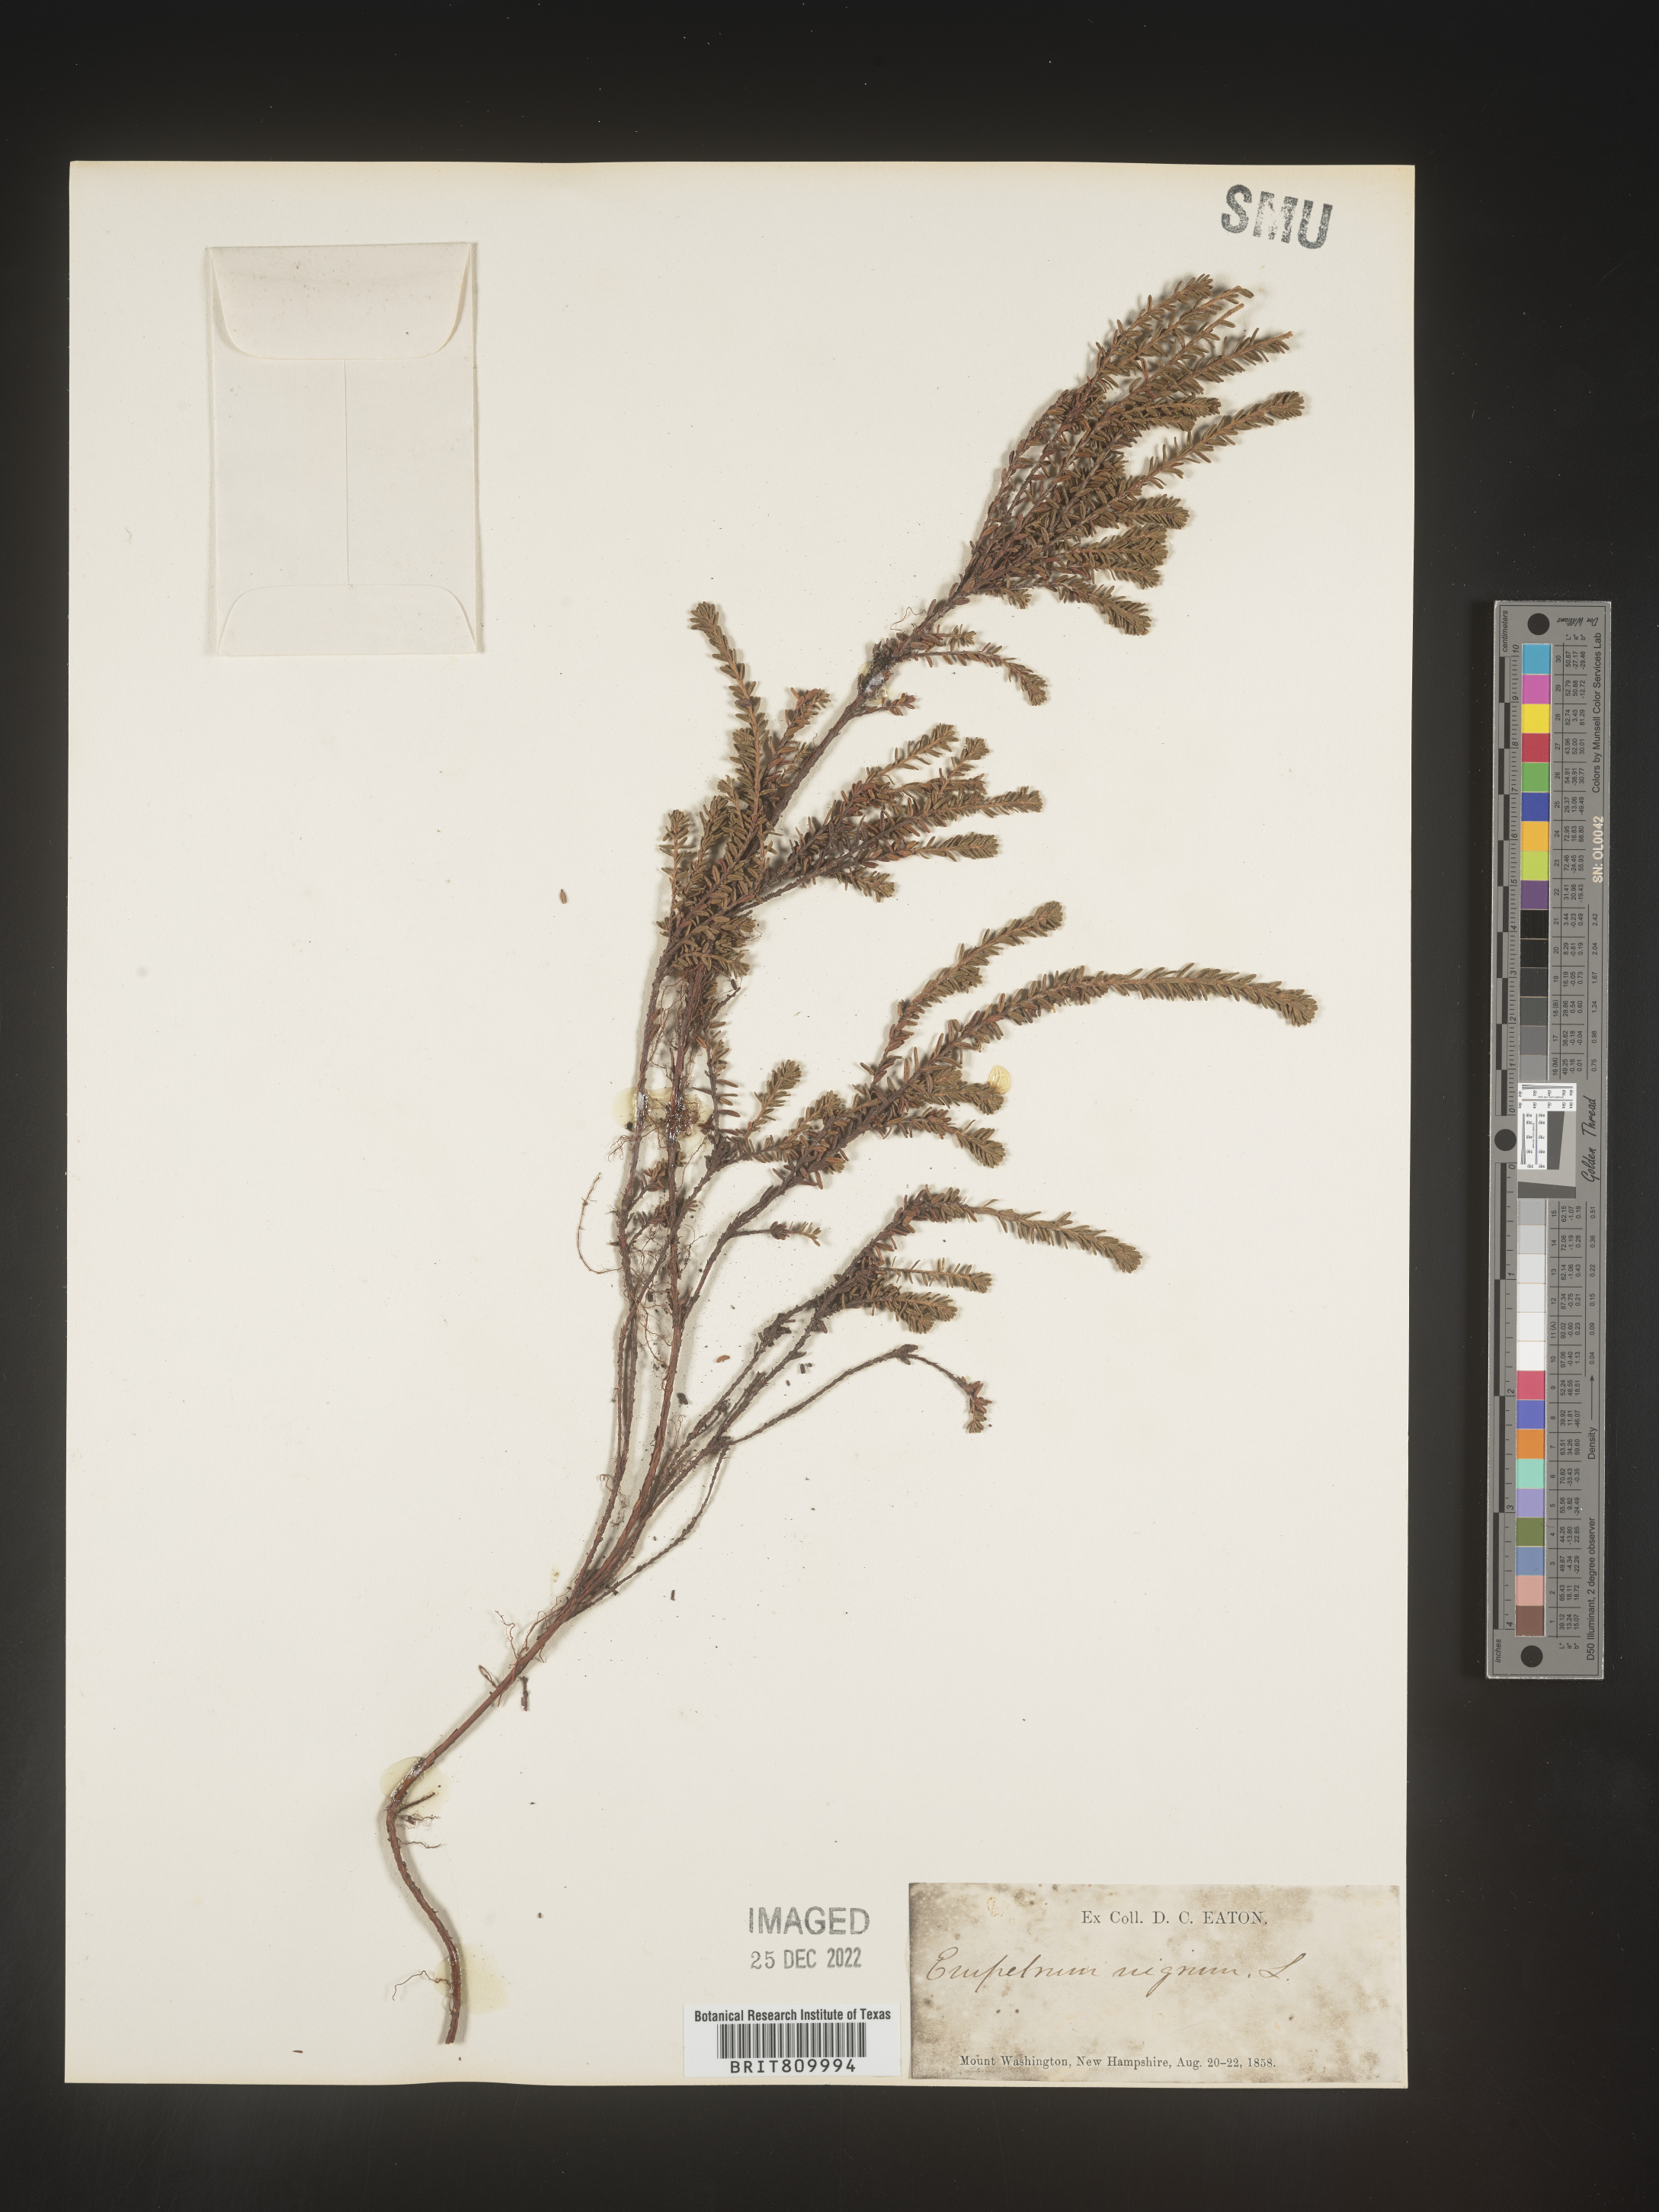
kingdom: Plantae
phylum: Tracheophyta
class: Magnoliopsida
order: Ericales
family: Ericaceae
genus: Empetrum
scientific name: Empetrum
